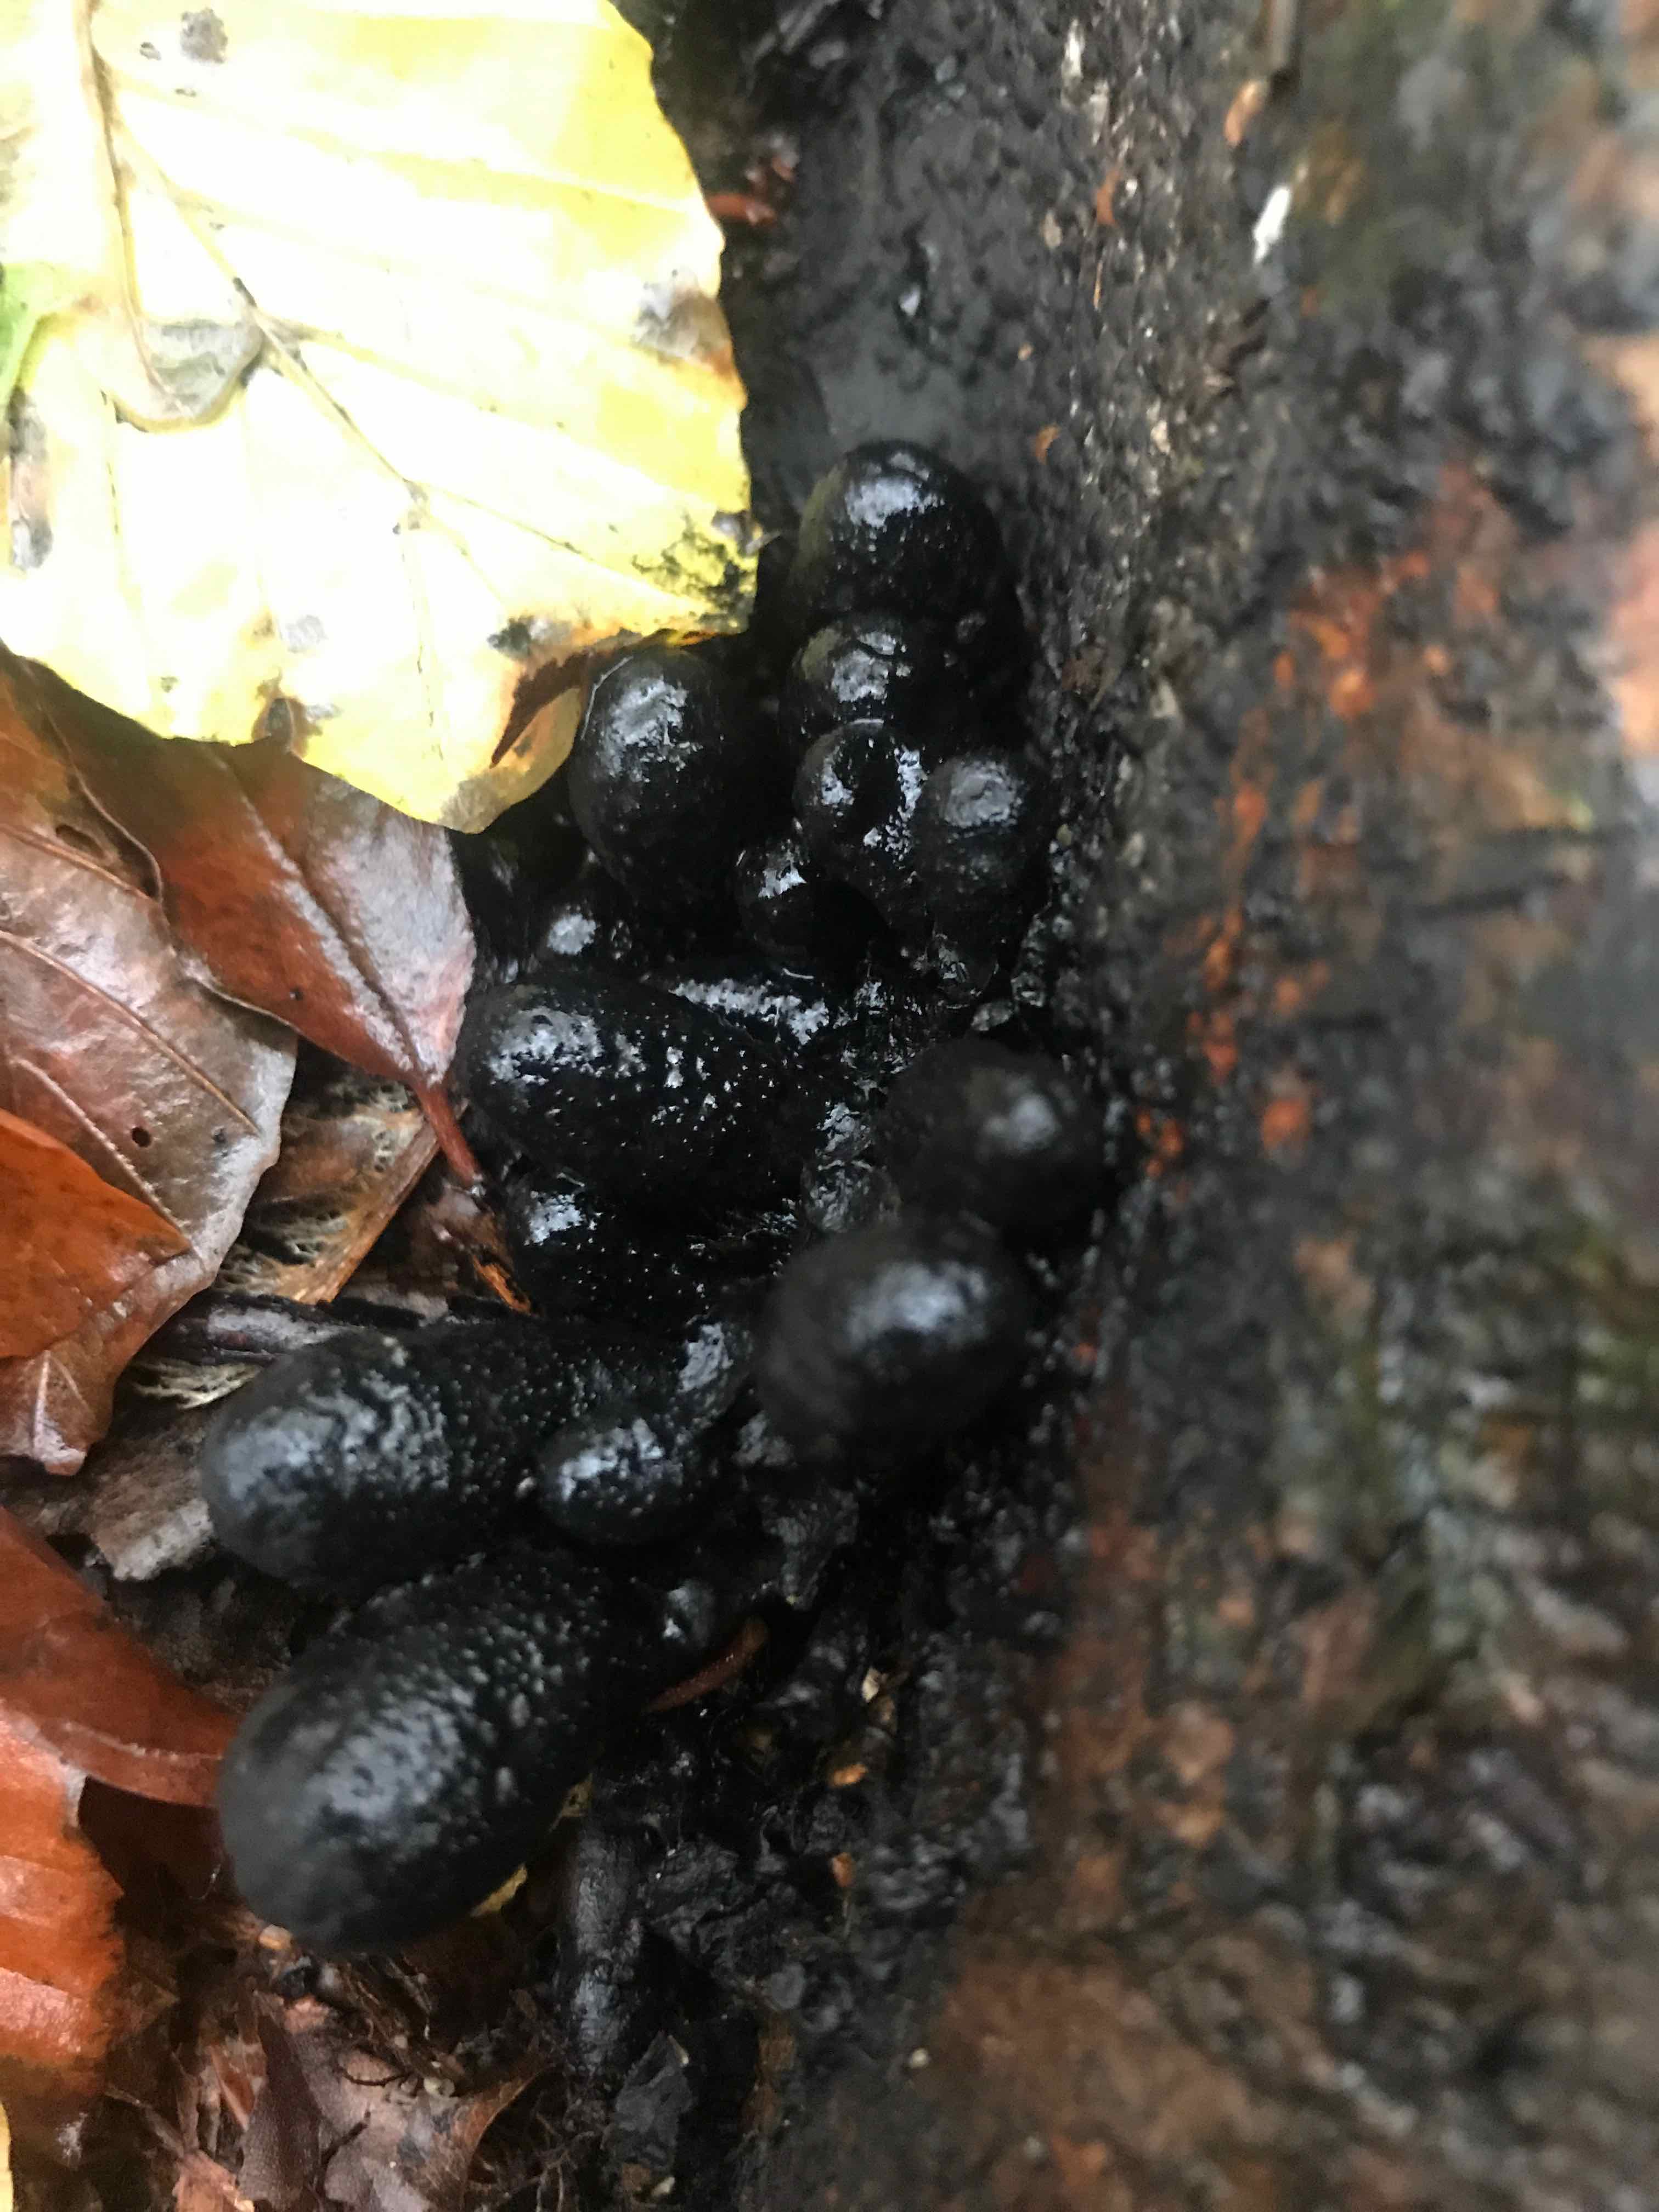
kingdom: Fungi
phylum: Ascomycota
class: Sordariomycetes
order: Xylariales
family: Xylariaceae
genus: Xylaria
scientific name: Xylaria polymorpha
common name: kølle-stødsvamp
